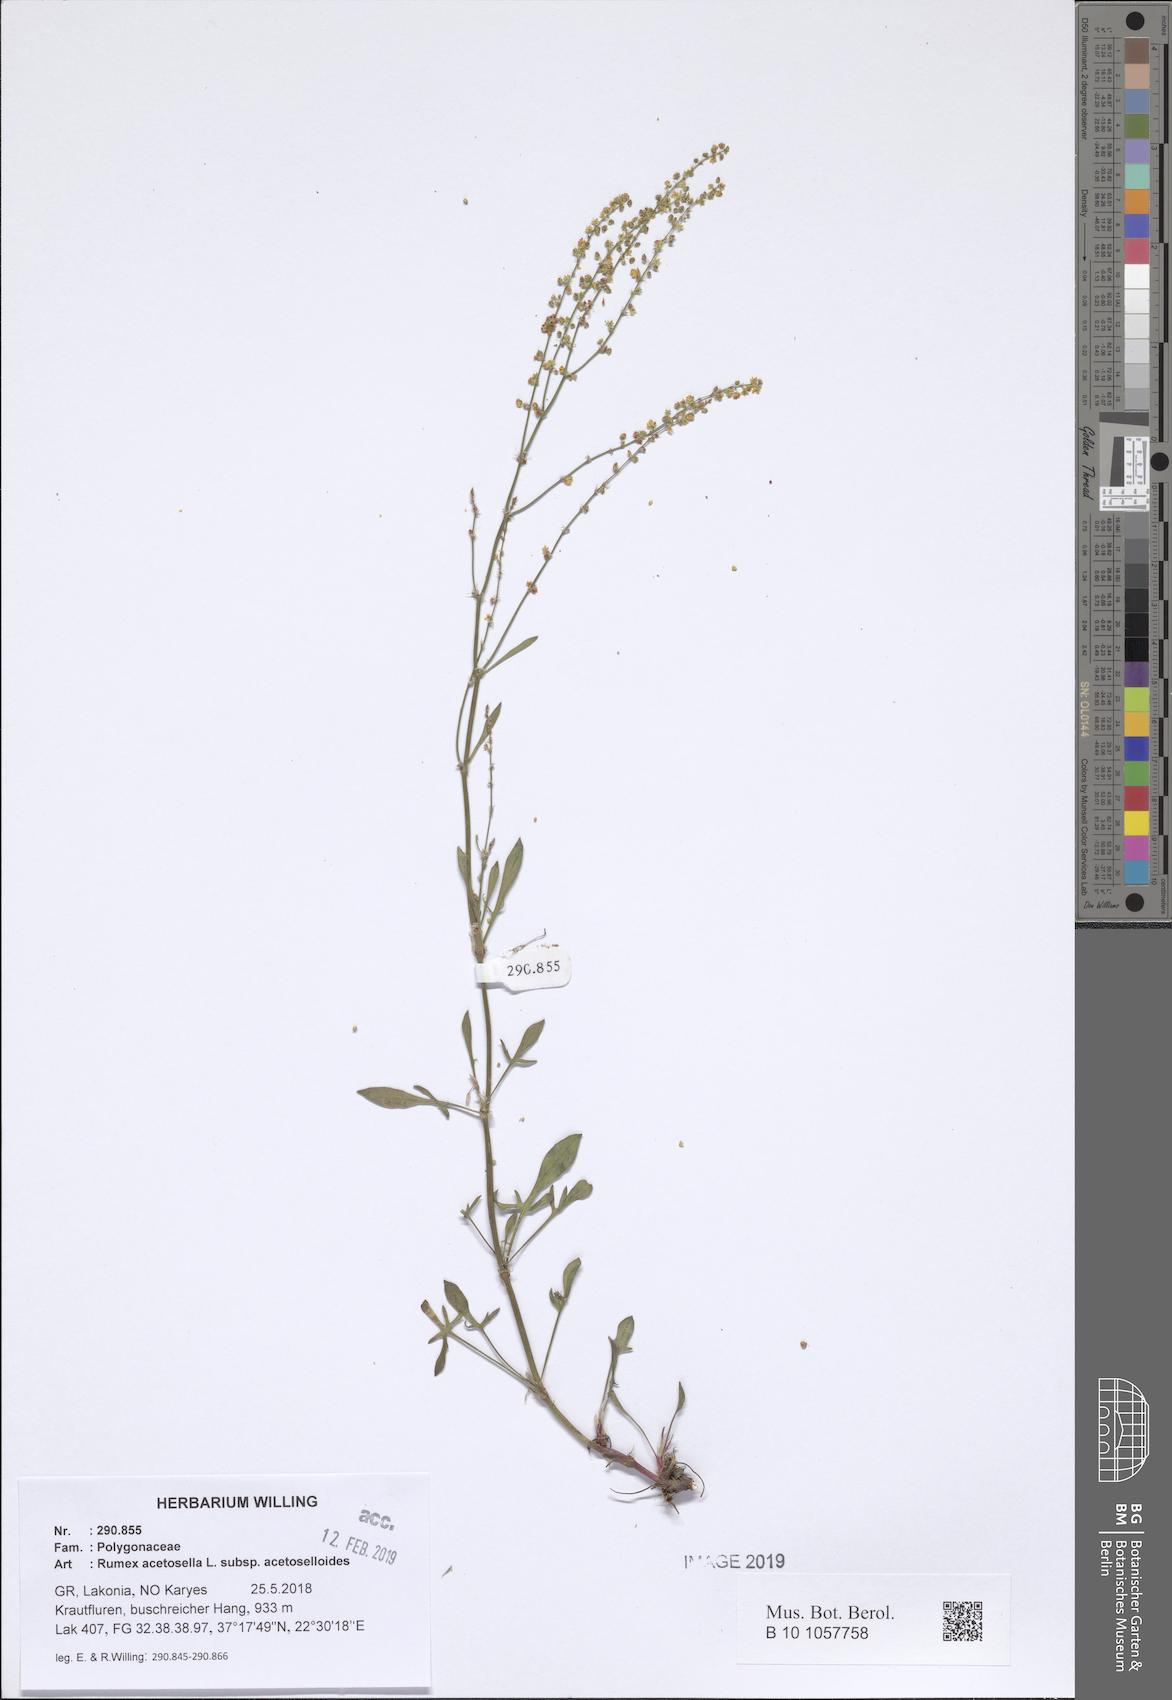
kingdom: Plantae
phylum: Tracheophyta
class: Magnoliopsida
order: Caryophyllales
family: Polygonaceae
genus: Rumex
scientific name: Rumex acetosella
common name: Common sheep sorrel
